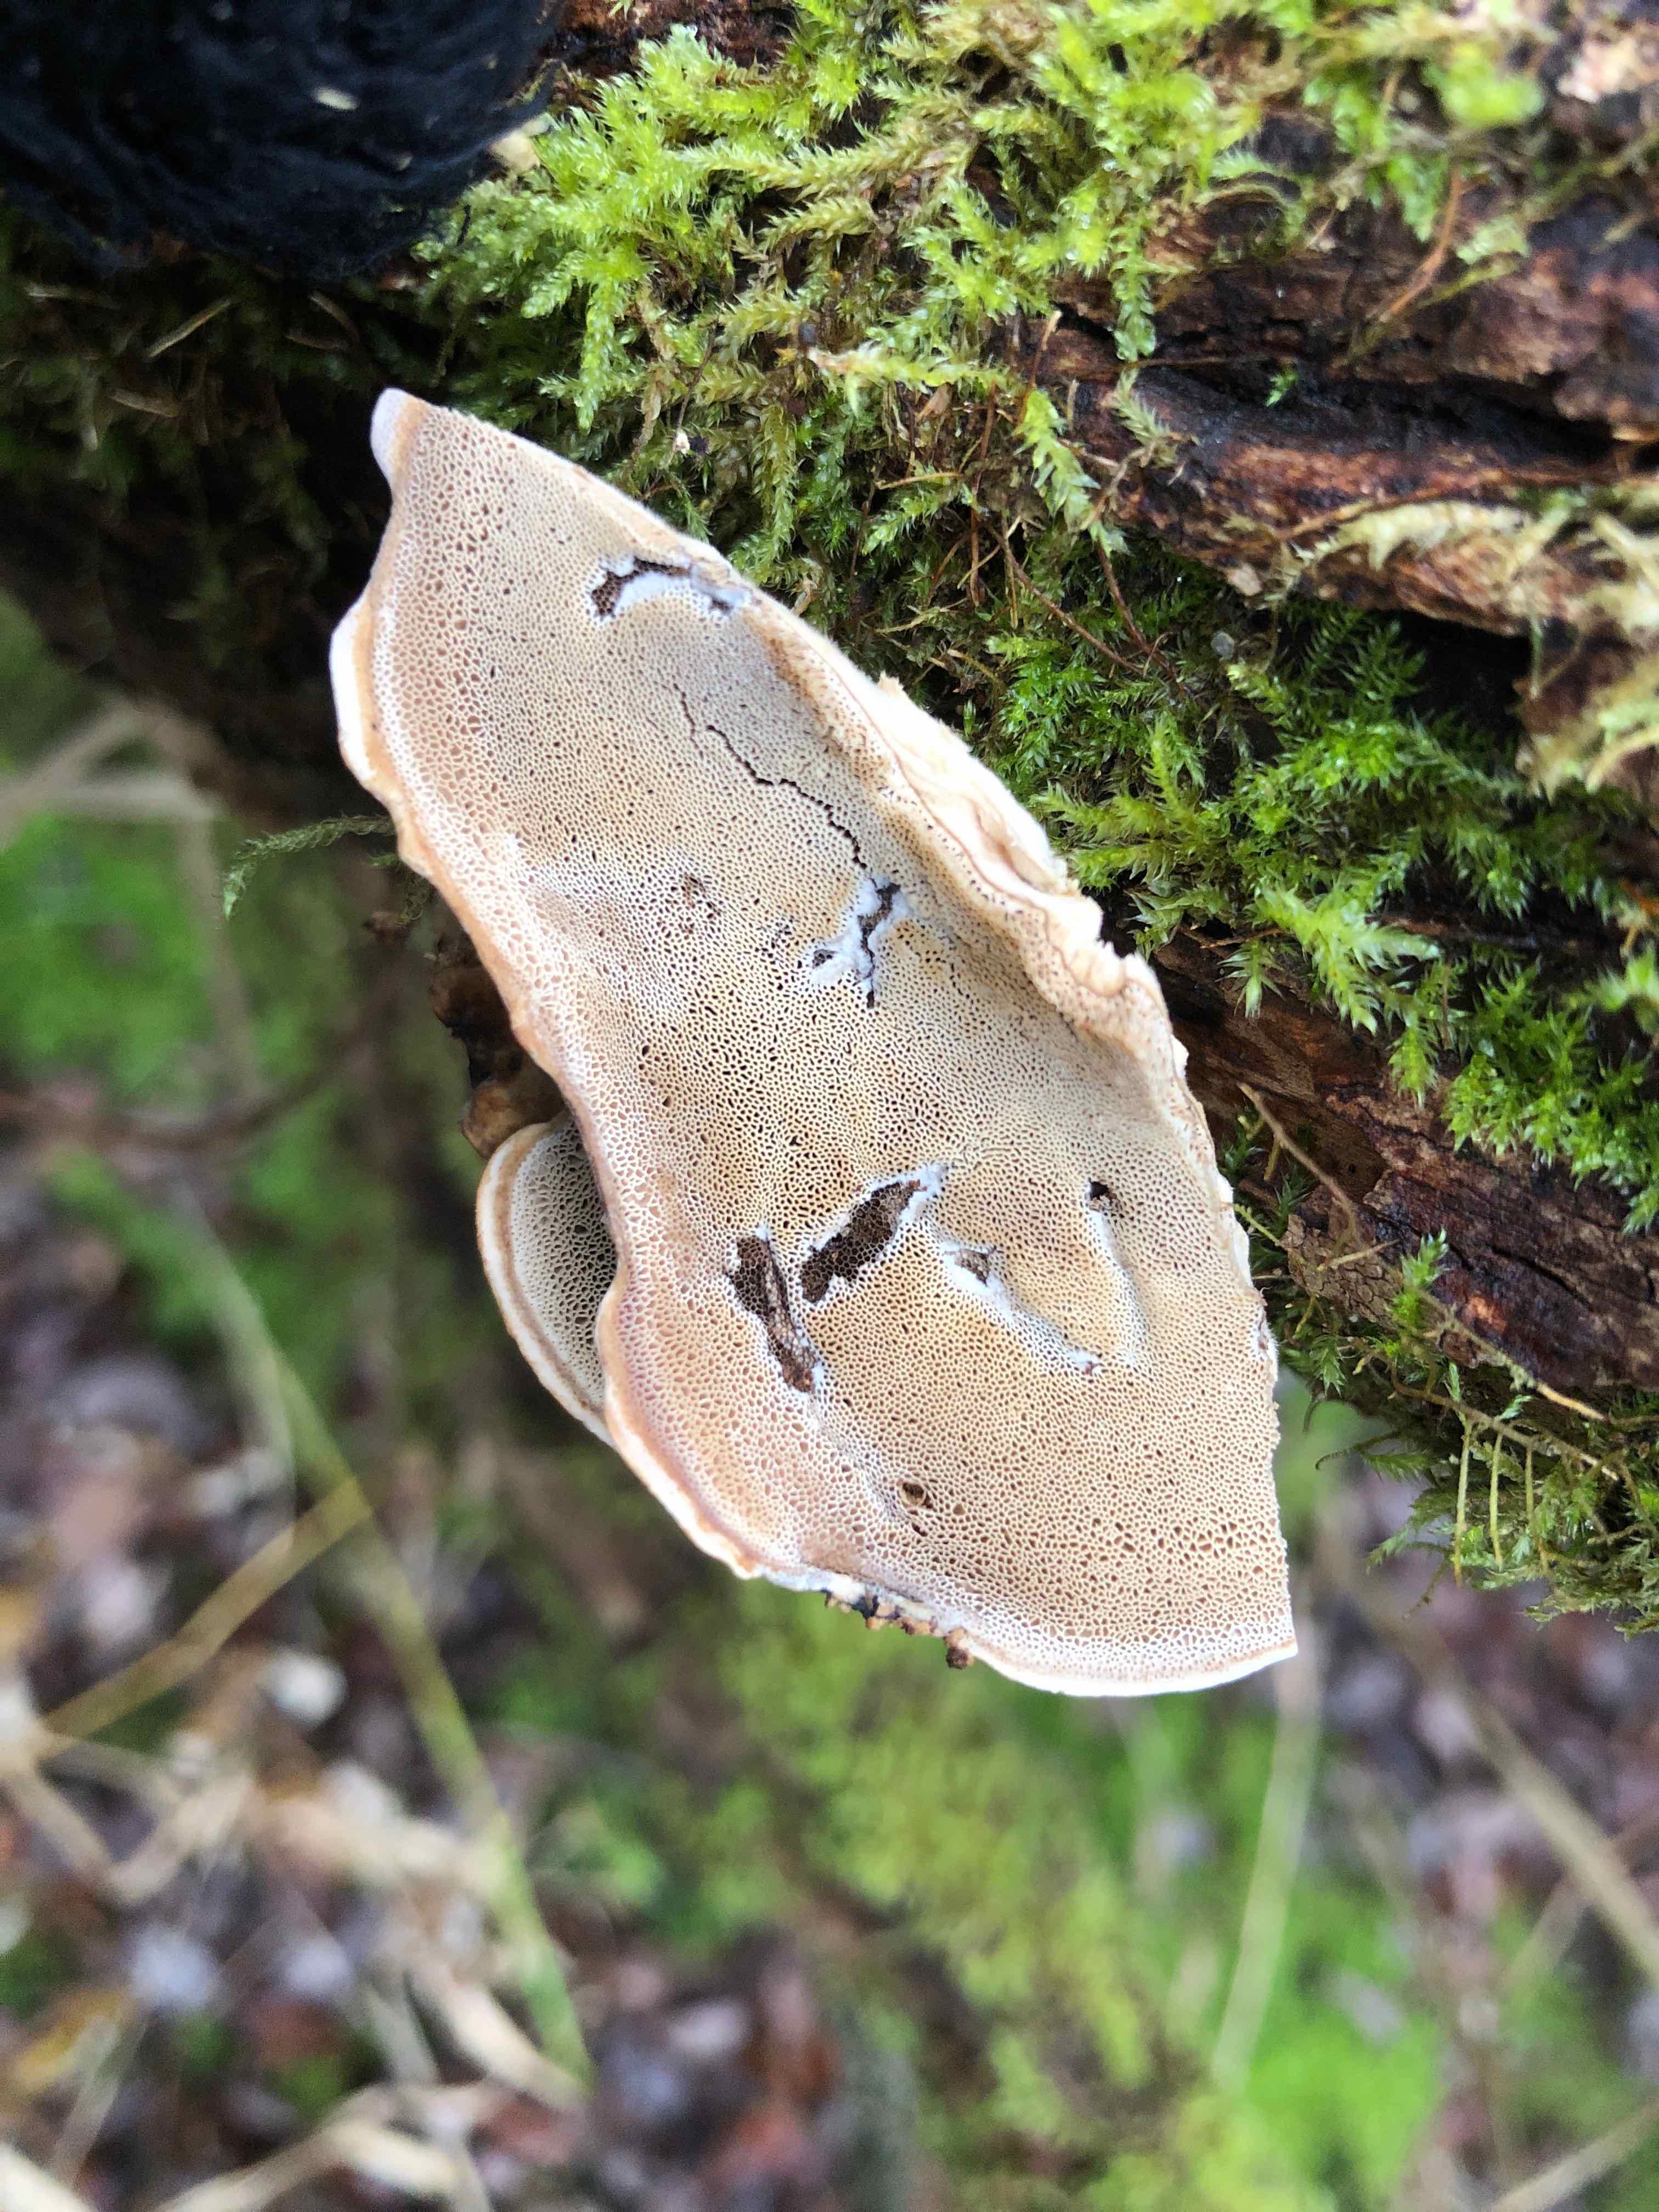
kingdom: Fungi
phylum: Basidiomycota
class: Agaricomycetes
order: Polyporales
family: Phanerochaetaceae
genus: Bjerkandera
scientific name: Bjerkandera fumosa
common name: grågul sodporesvamp
